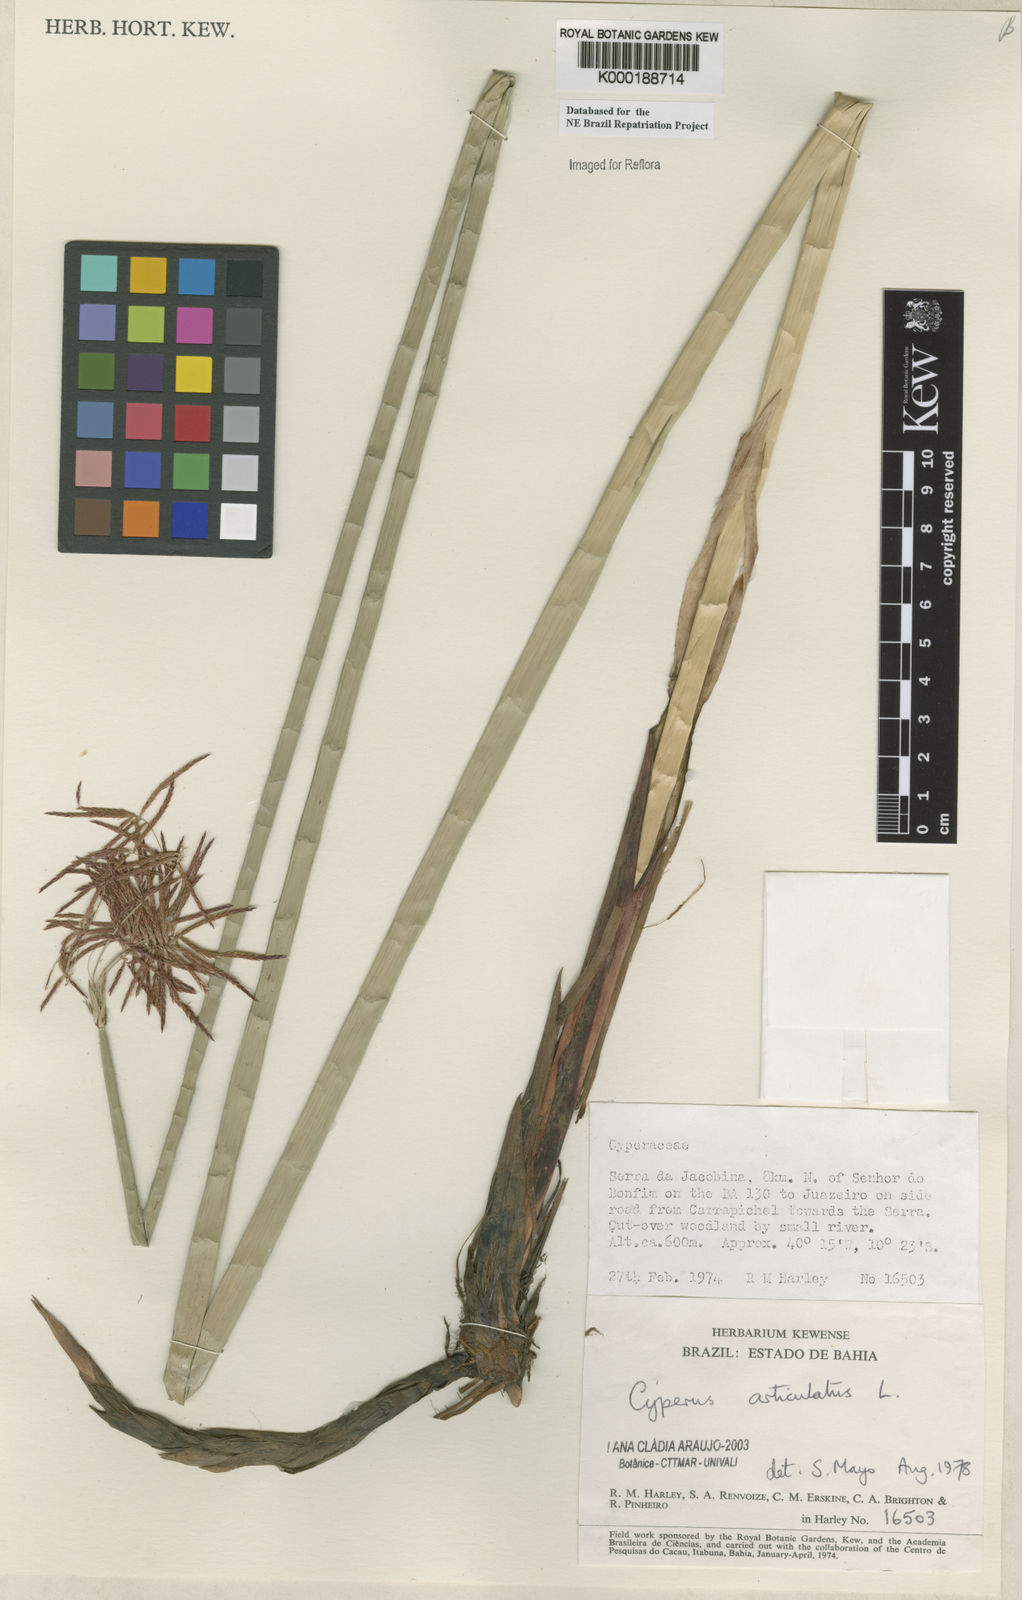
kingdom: Plantae
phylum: Tracheophyta
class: Liliopsida
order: Poales
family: Cyperaceae
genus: Cyperus
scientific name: Cyperus articulatus
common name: Jointed flatsedge
